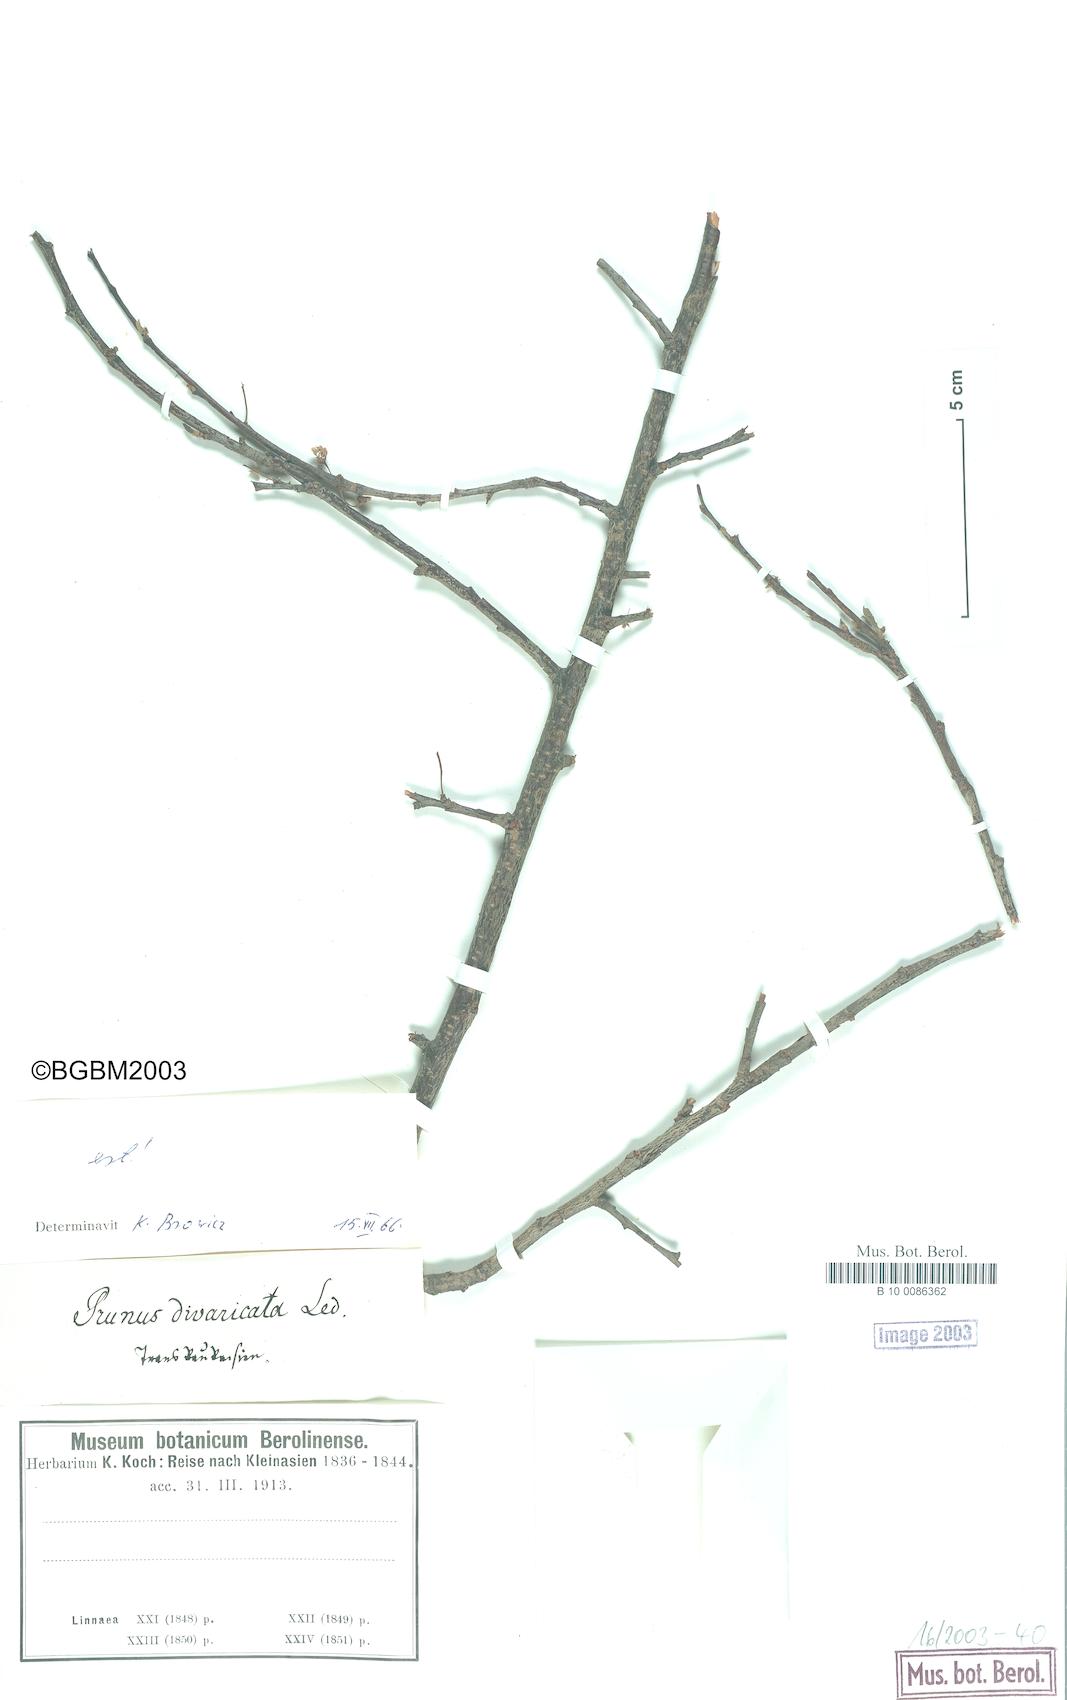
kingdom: Plantae
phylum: Tracheophyta
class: Magnoliopsida
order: Rosales
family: Rosaceae
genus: Prunus
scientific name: Prunus
